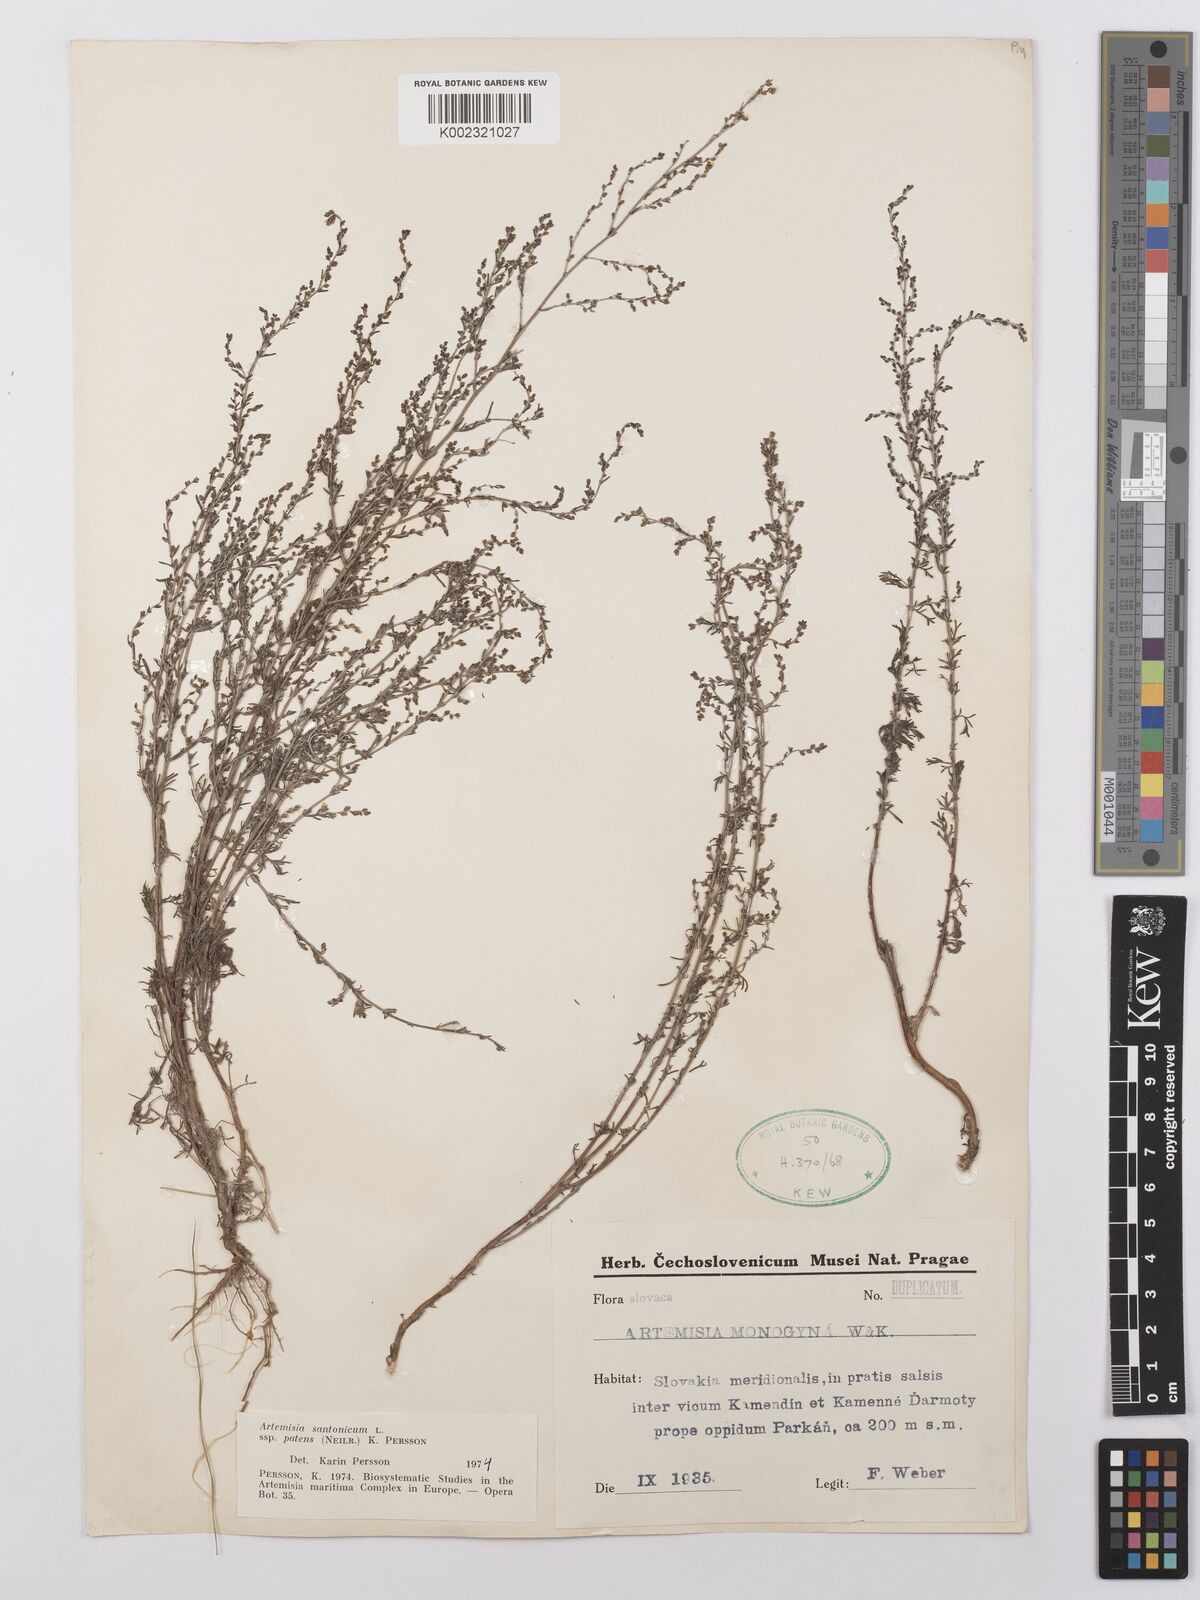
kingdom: Plantae
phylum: Tracheophyta
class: Magnoliopsida
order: Asterales
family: Asteraceae
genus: Artemisia
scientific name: Artemisia santonicum
